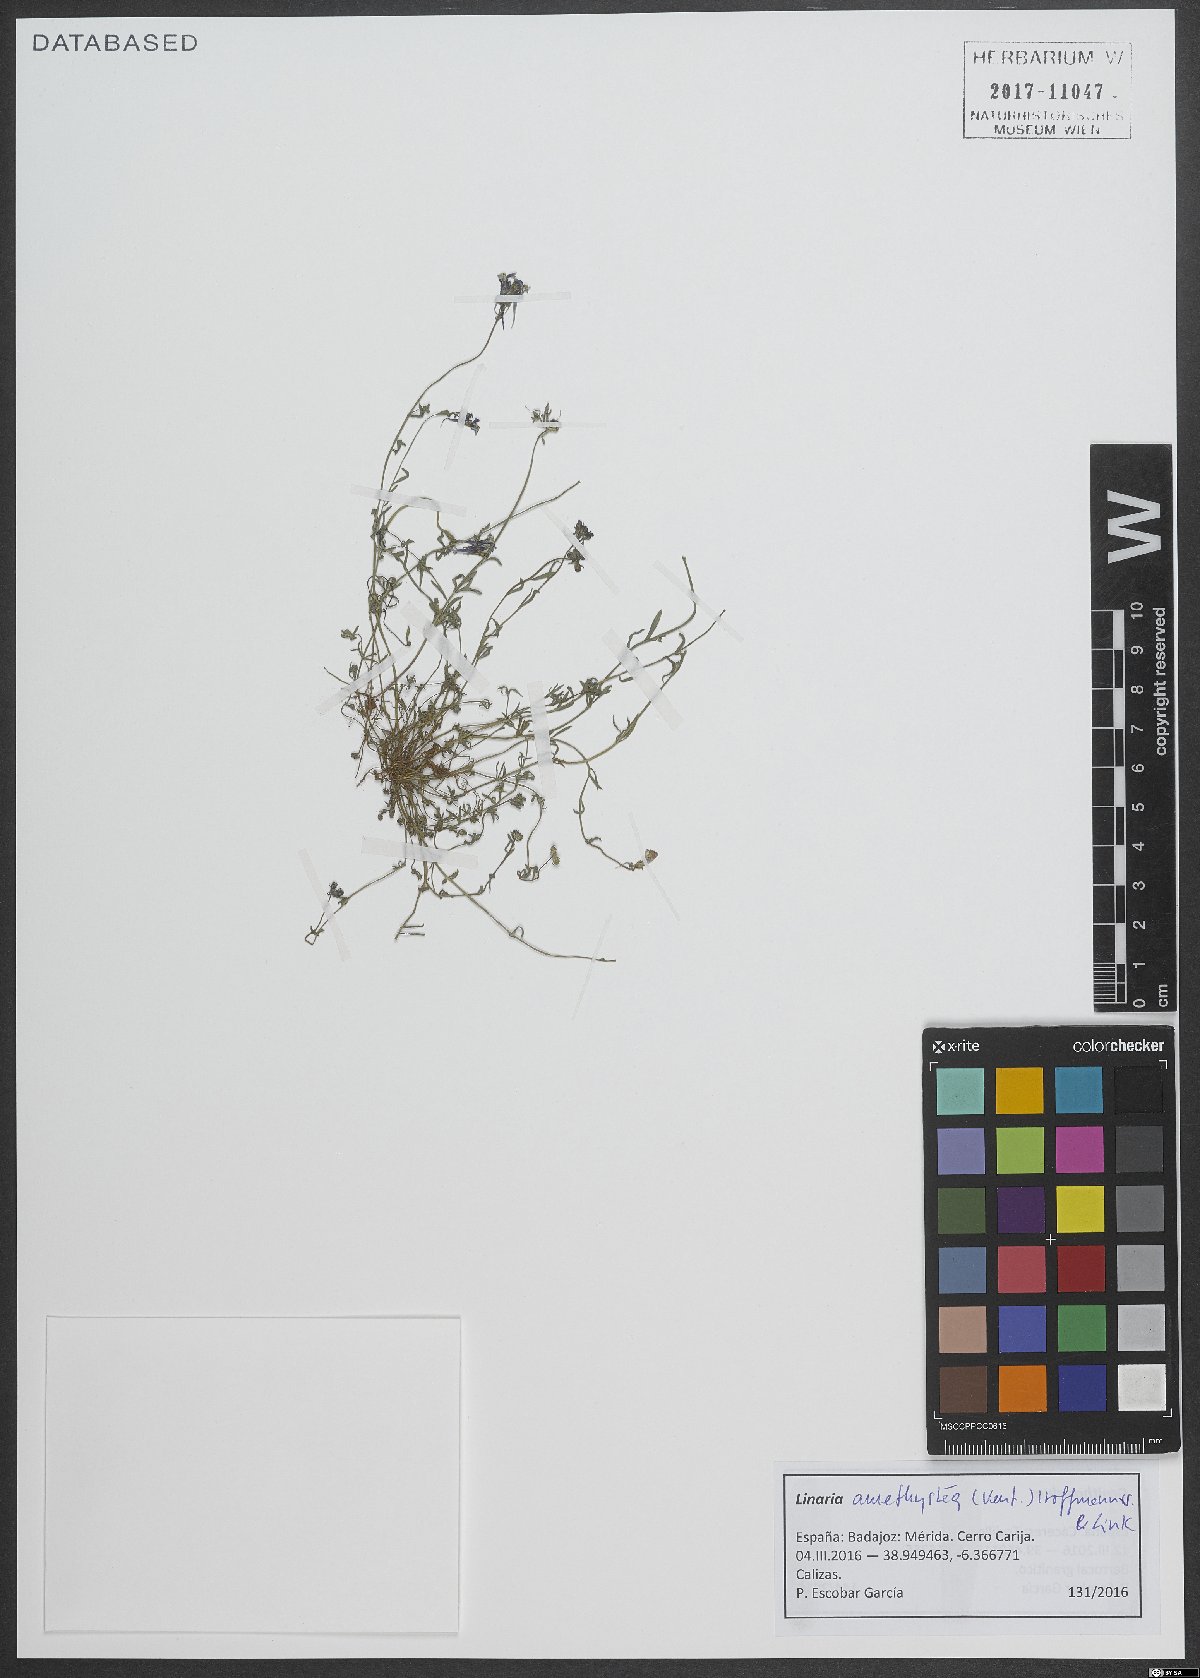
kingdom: Plantae
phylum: Tracheophyta
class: Magnoliopsida
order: Lamiales
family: Plantaginaceae
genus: Linaria
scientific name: Linaria amethystea
